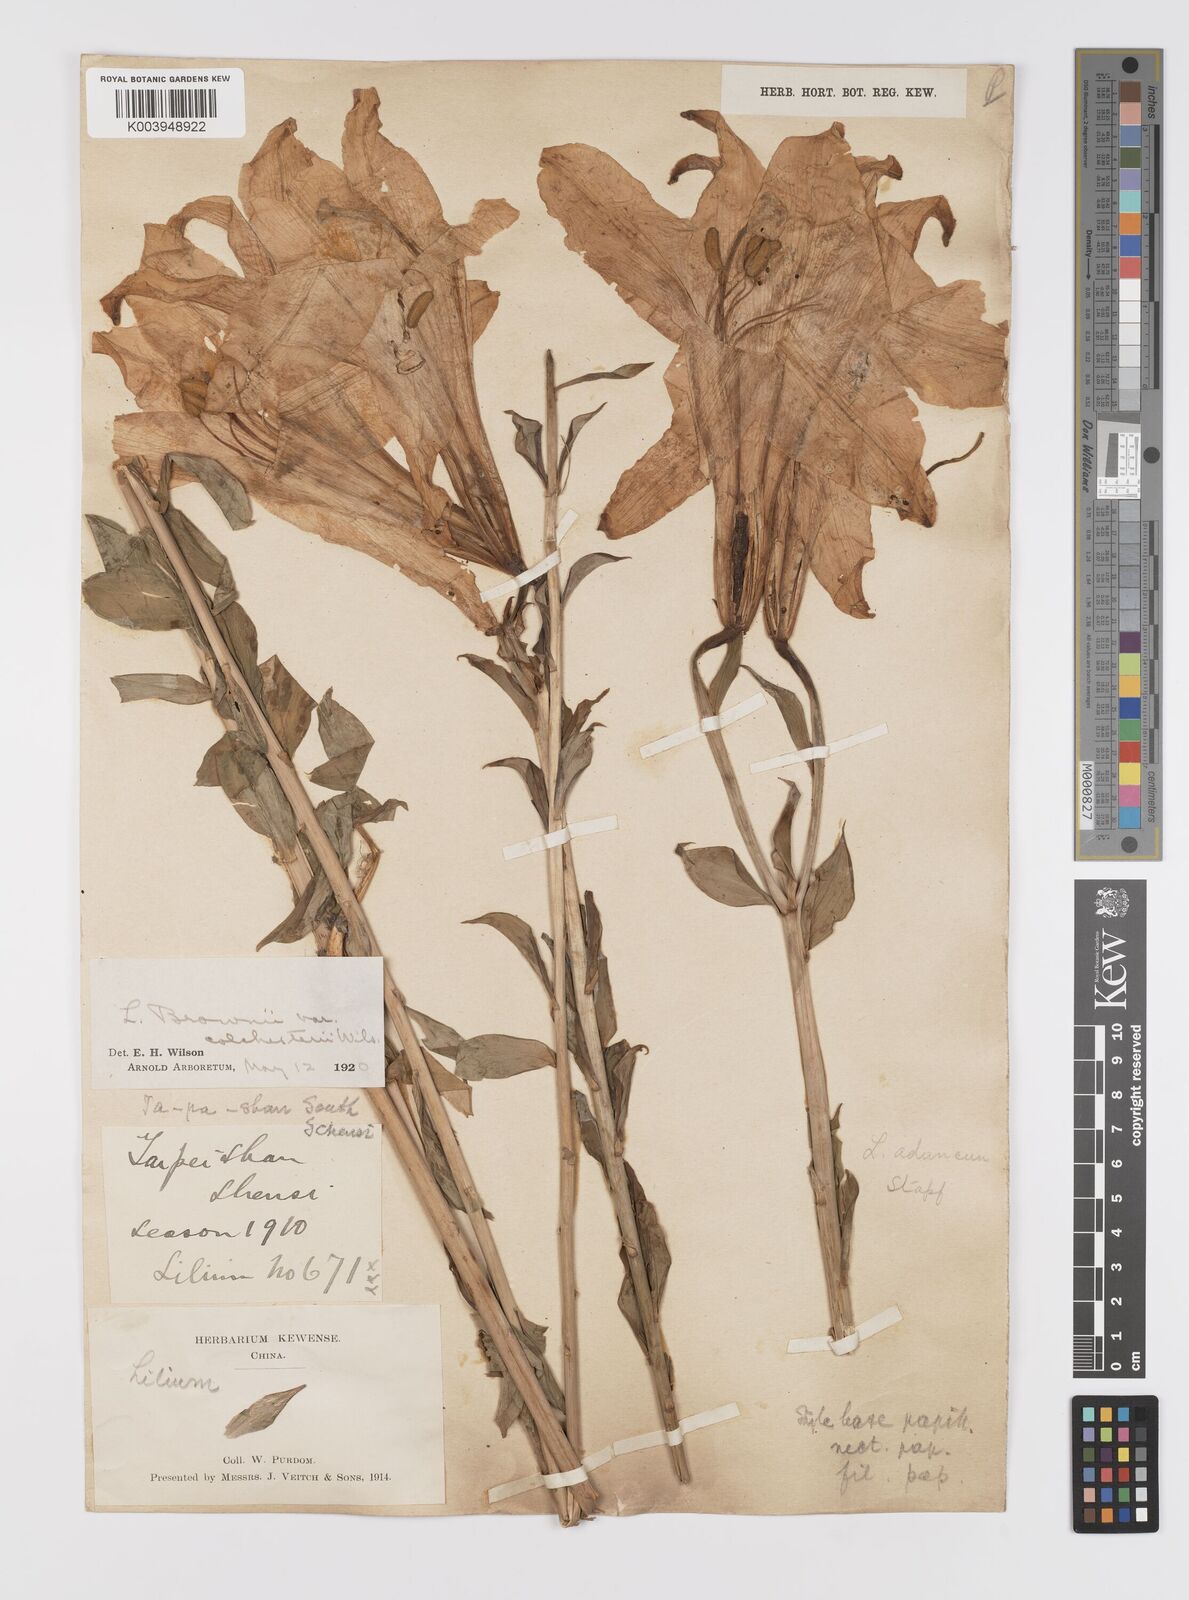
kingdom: Plantae
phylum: Tracheophyta
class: Liliopsida
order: Liliales
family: Liliaceae
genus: Lilium
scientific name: Lilium brownii
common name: Brown's lily
